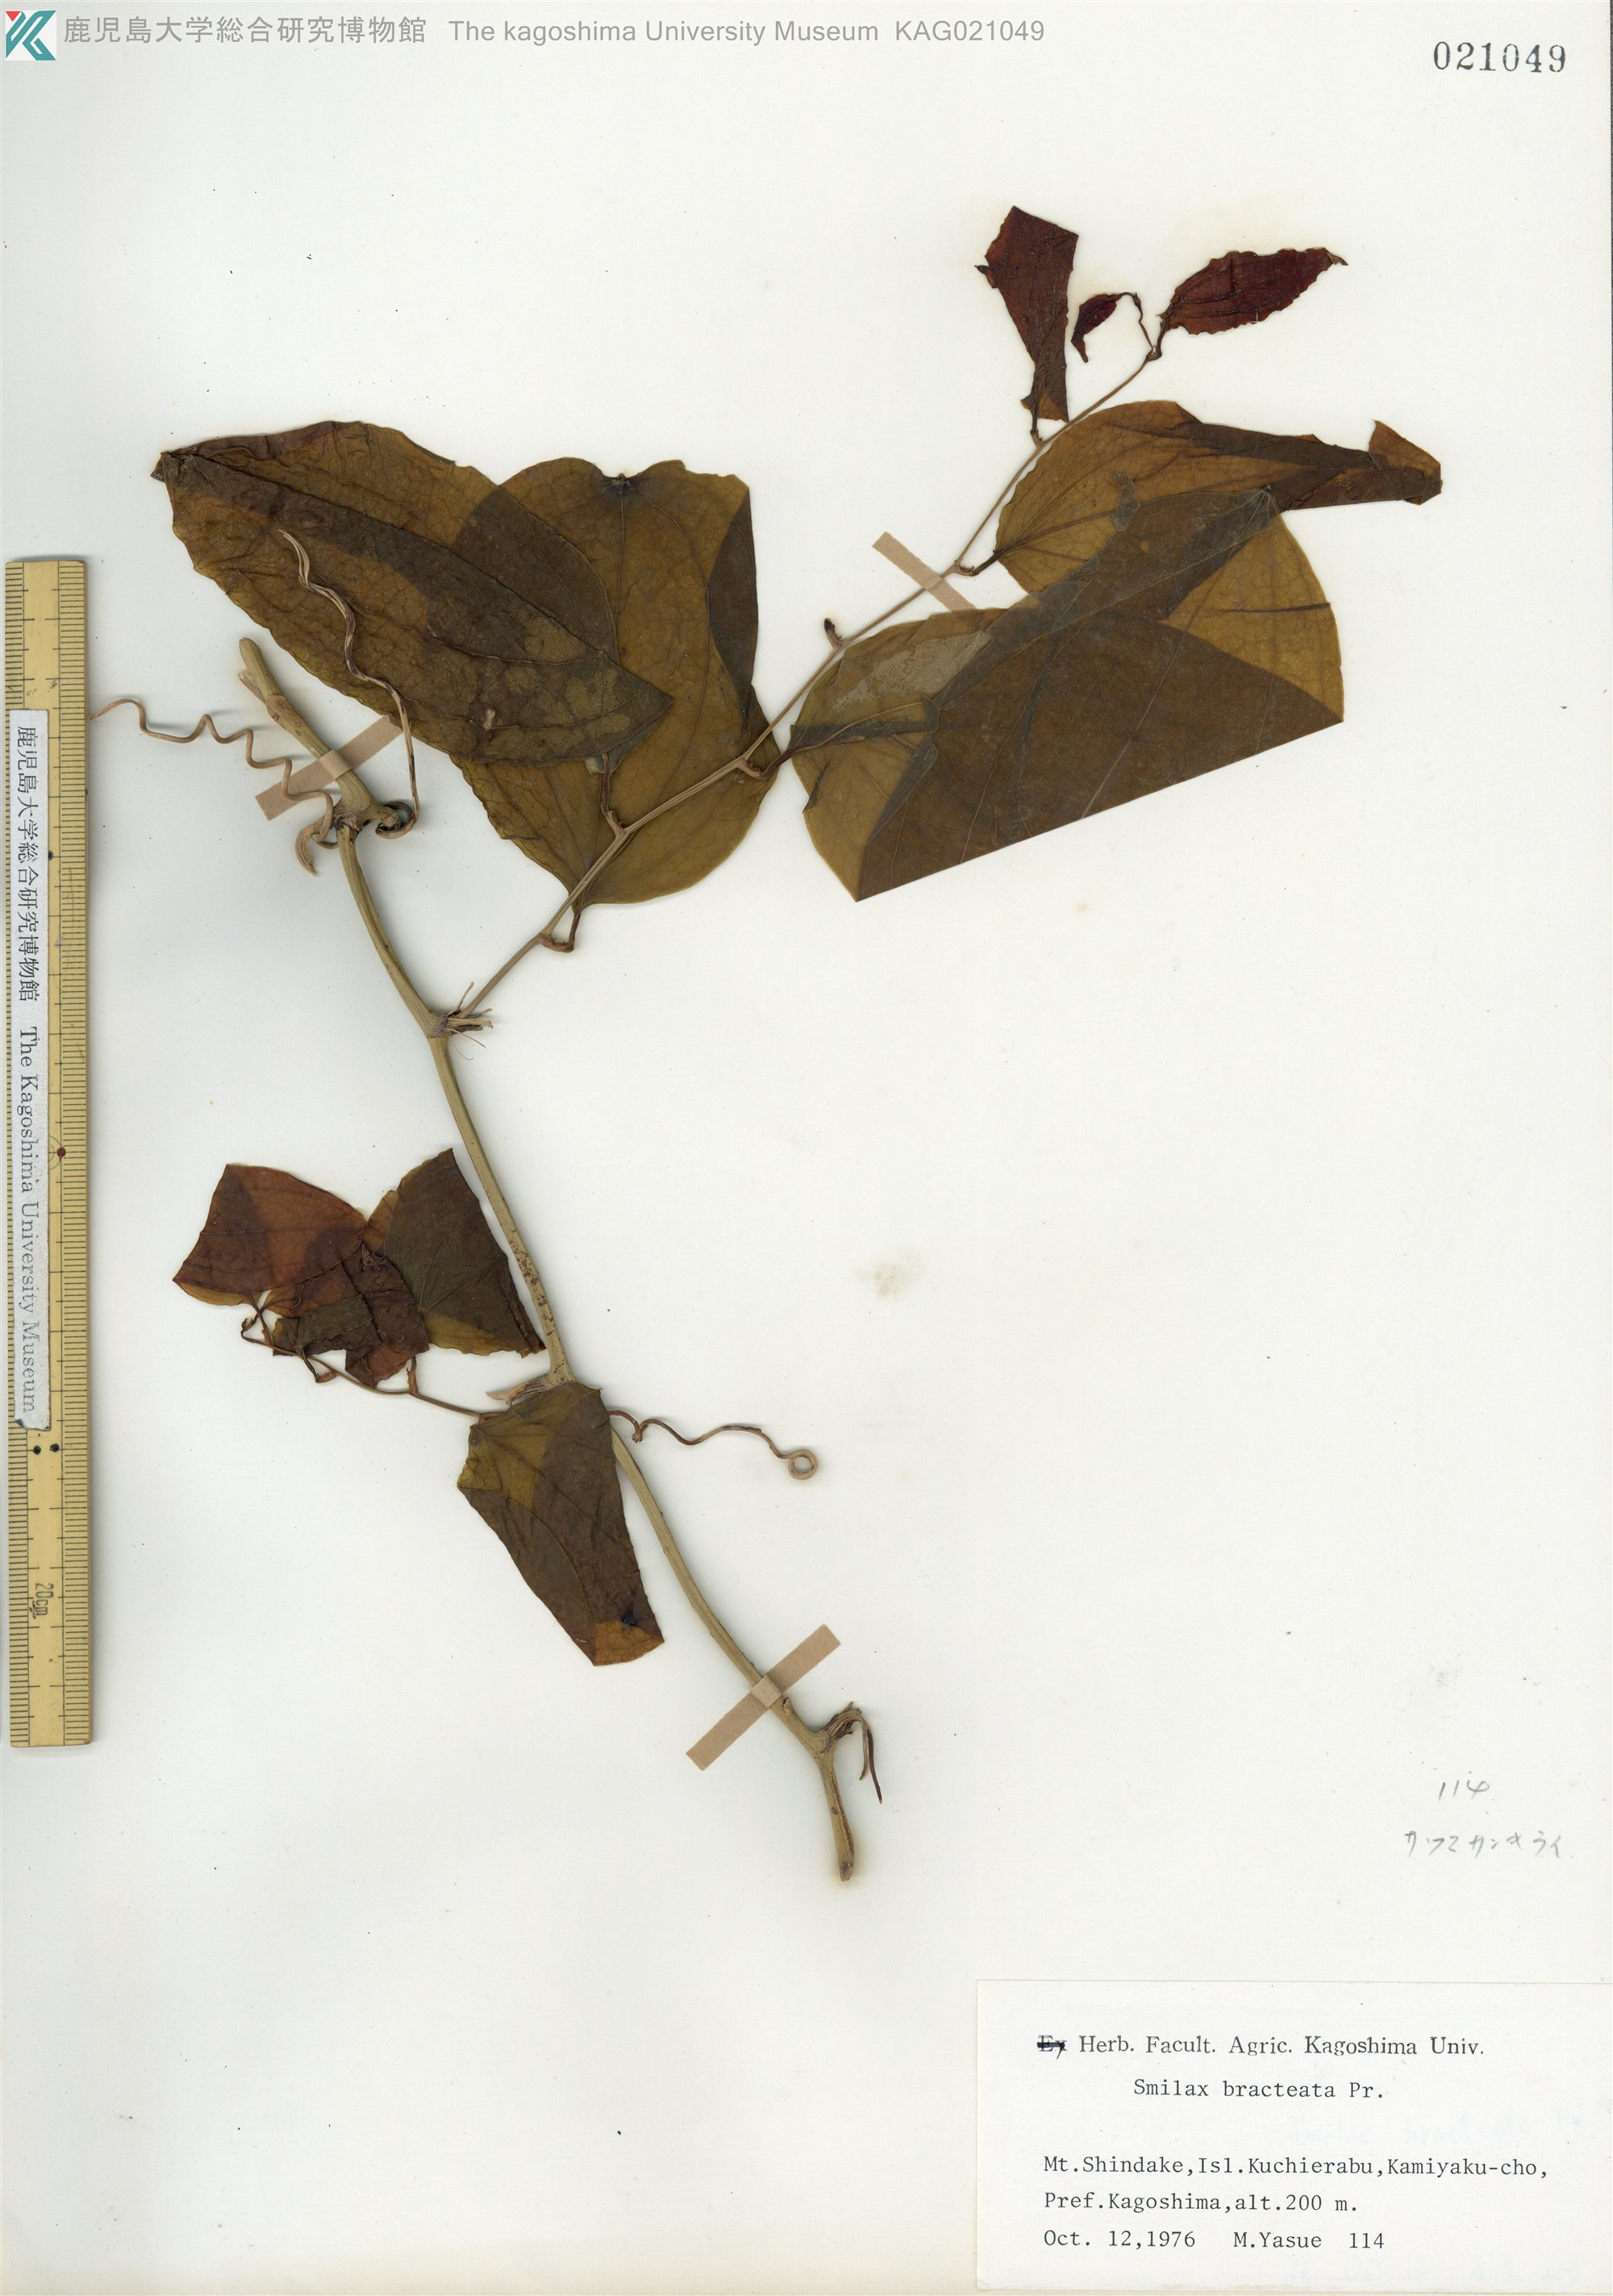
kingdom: Plantae
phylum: Tracheophyta
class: Liliopsida
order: Liliales
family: Smilacaceae
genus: Smilax
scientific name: Smilax bracteata
